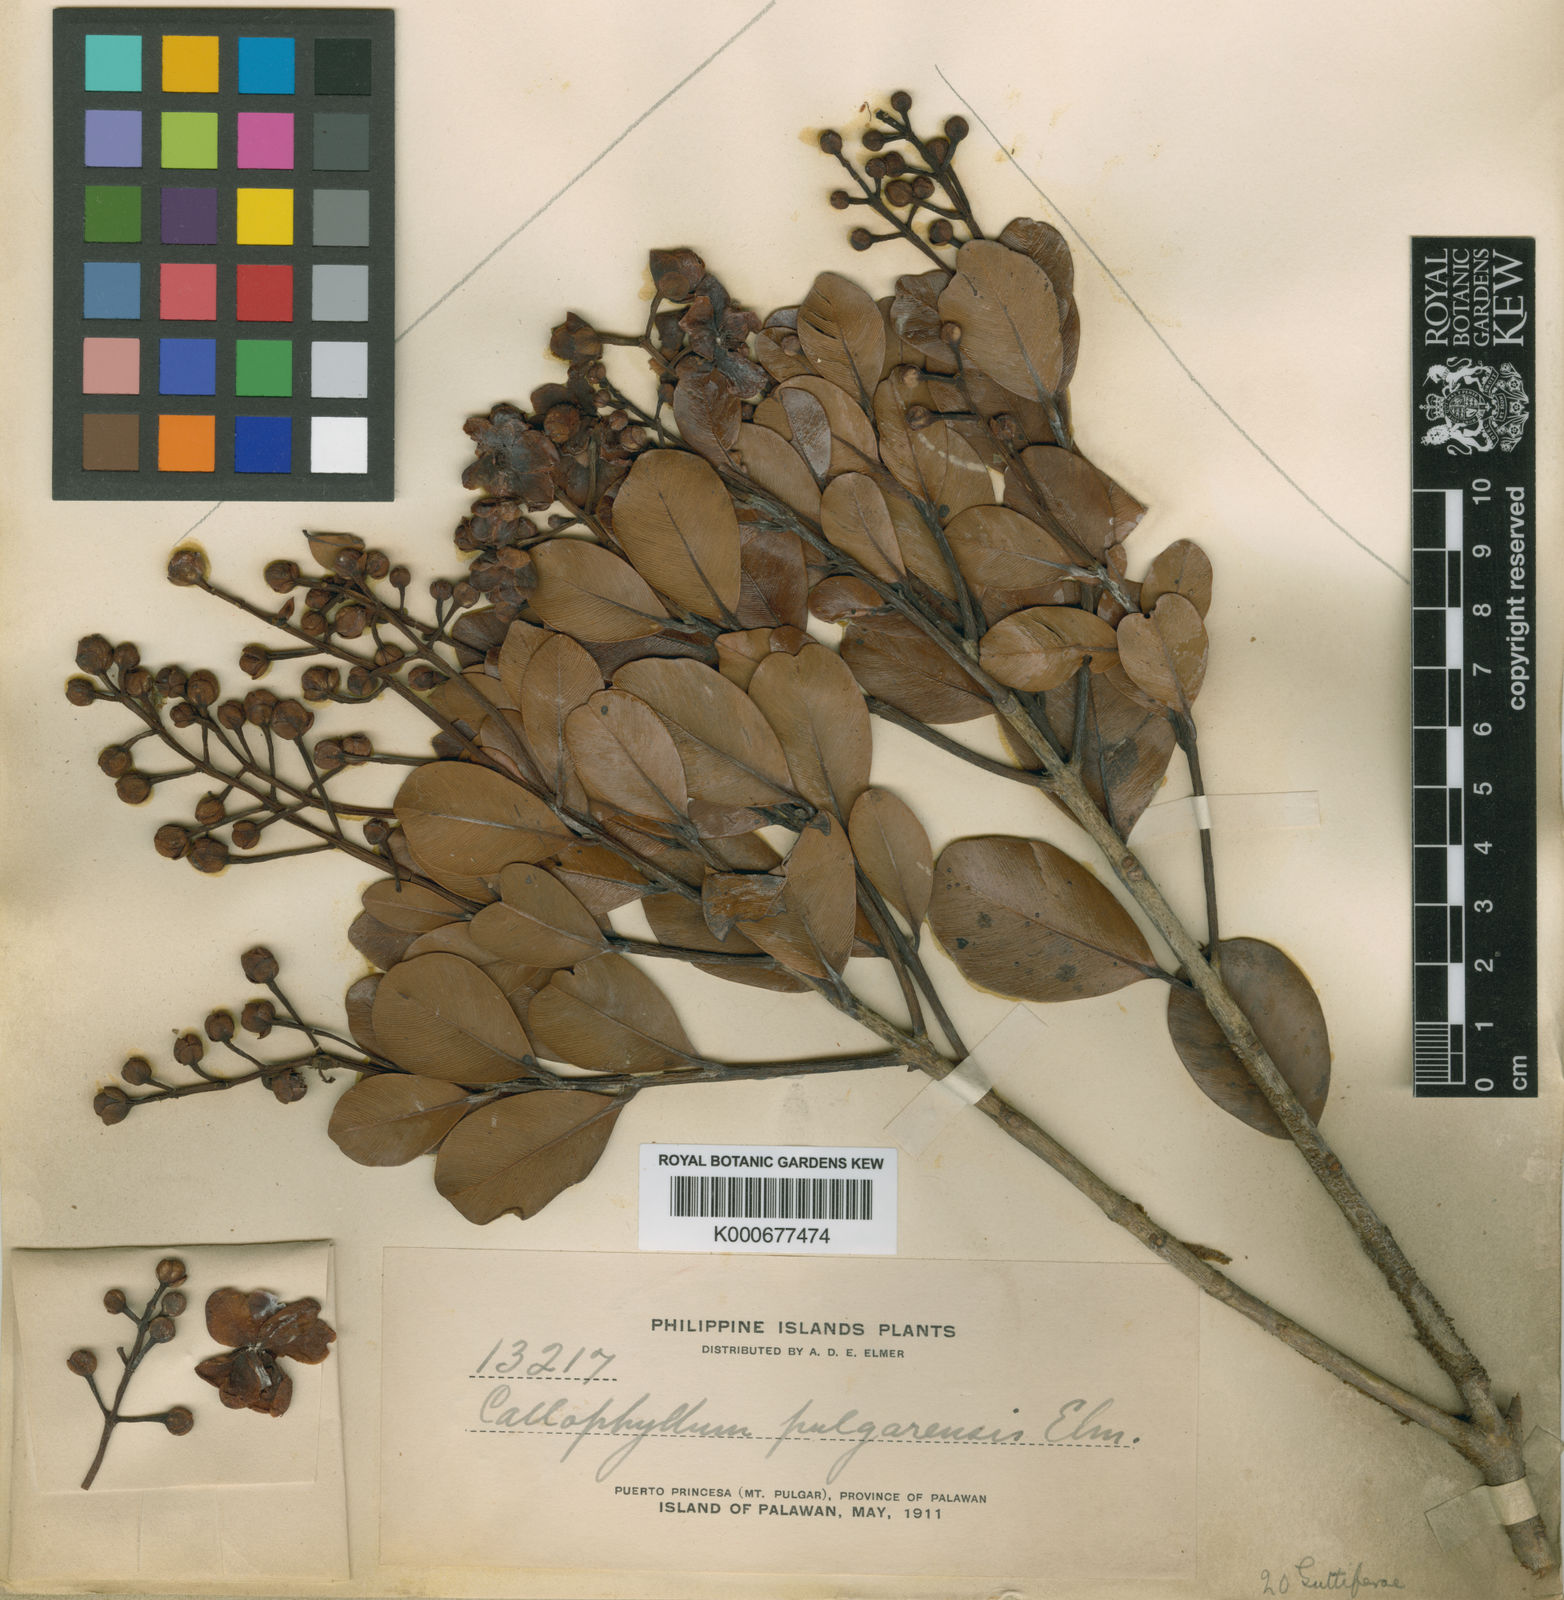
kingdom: Plantae
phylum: Tracheophyta
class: Magnoliopsida
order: Malpighiales
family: Calophyllaceae
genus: Calophyllum
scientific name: Calophyllum pentapetalum
